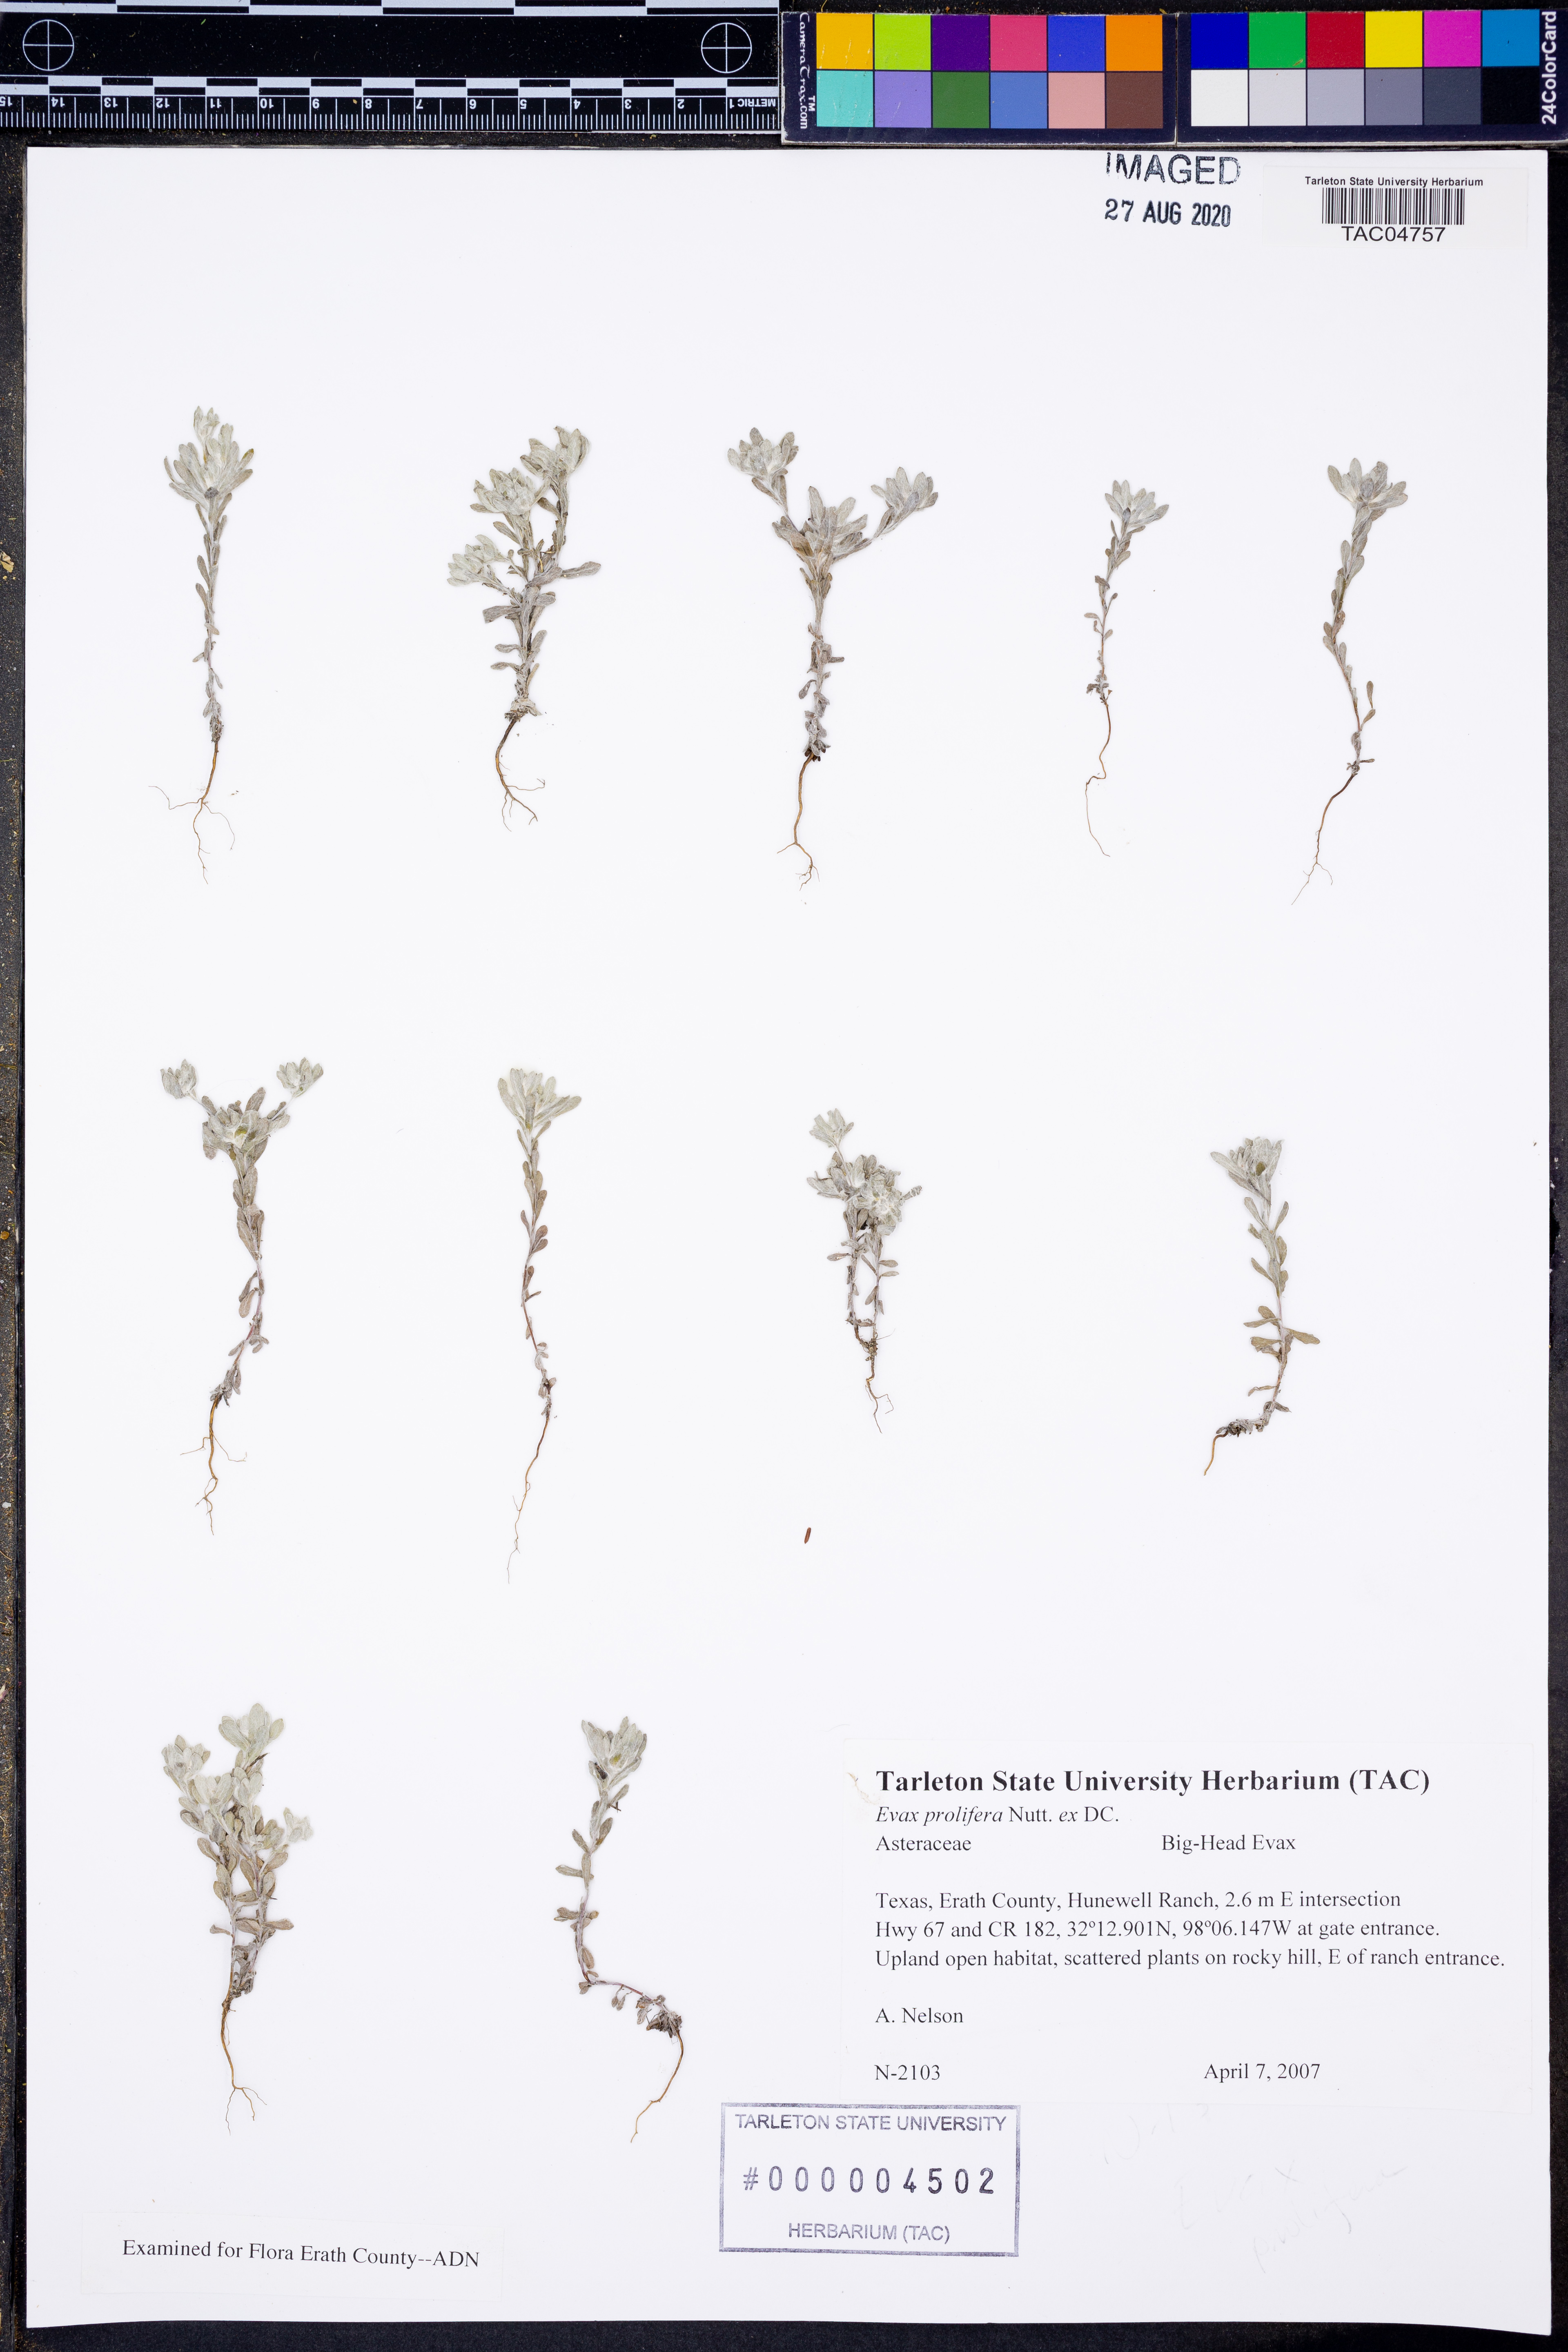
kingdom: Plantae
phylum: Tracheophyta
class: Magnoliopsida
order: Asterales
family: Asteraceae
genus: Diaperia
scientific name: Diaperia prolifera
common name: Big-head rabbit-tobacco
